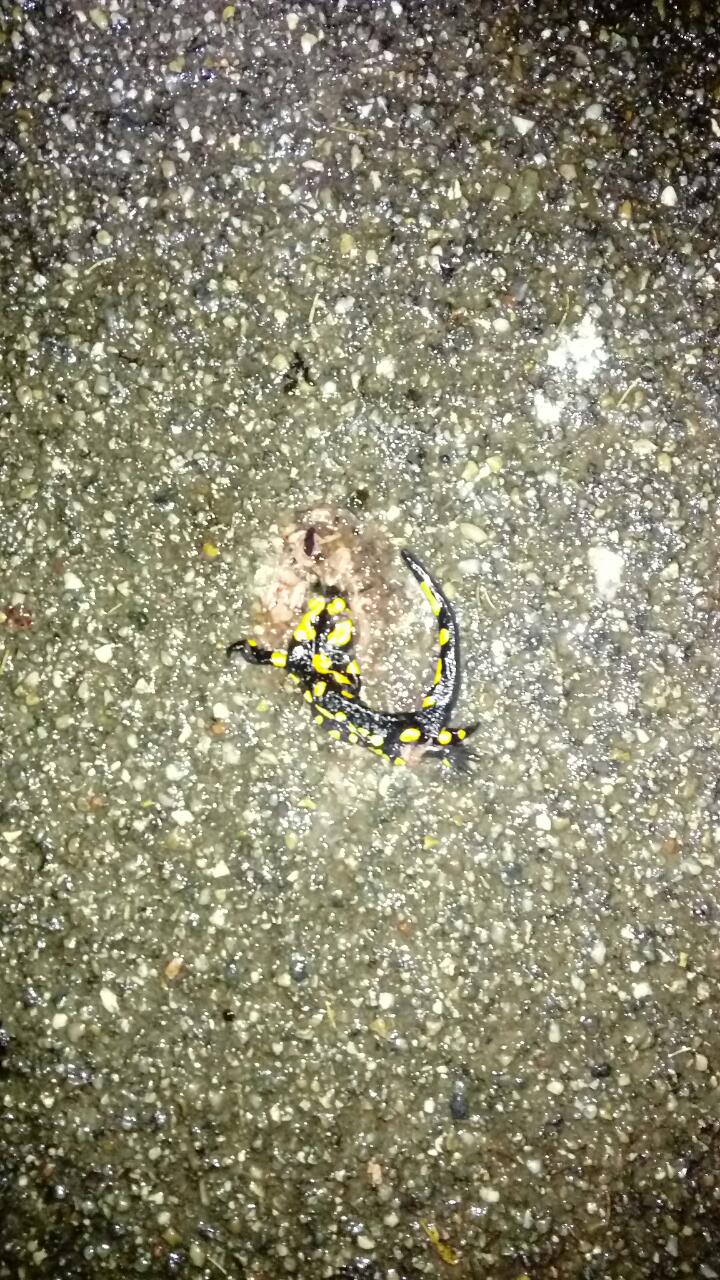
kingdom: Animalia
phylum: Chordata
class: Amphibia
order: Caudata
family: Salamandridae
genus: Salamandra
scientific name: Salamandra salamandra
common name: Fire salamander
